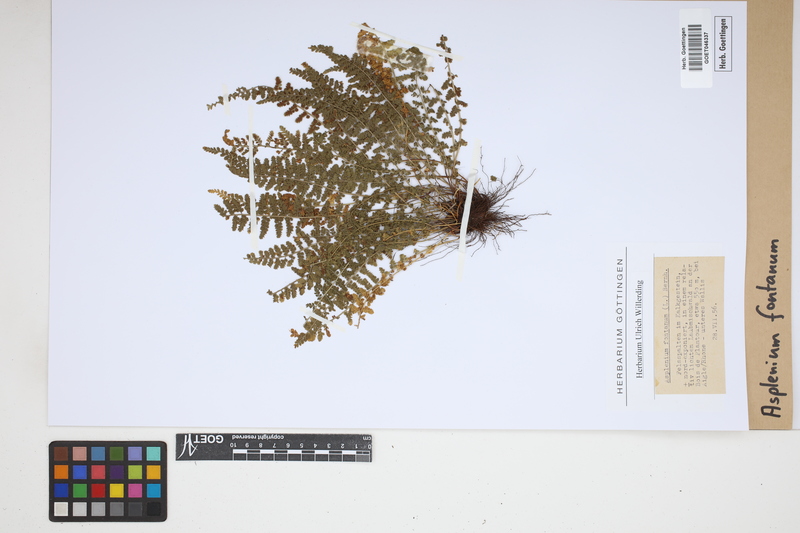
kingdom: Plantae
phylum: Tracheophyta
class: Polypodiopsida
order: Polypodiales
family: Aspleniaceae
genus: Asplenium
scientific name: Asplenium fontanum
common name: Fountain spleenwort
